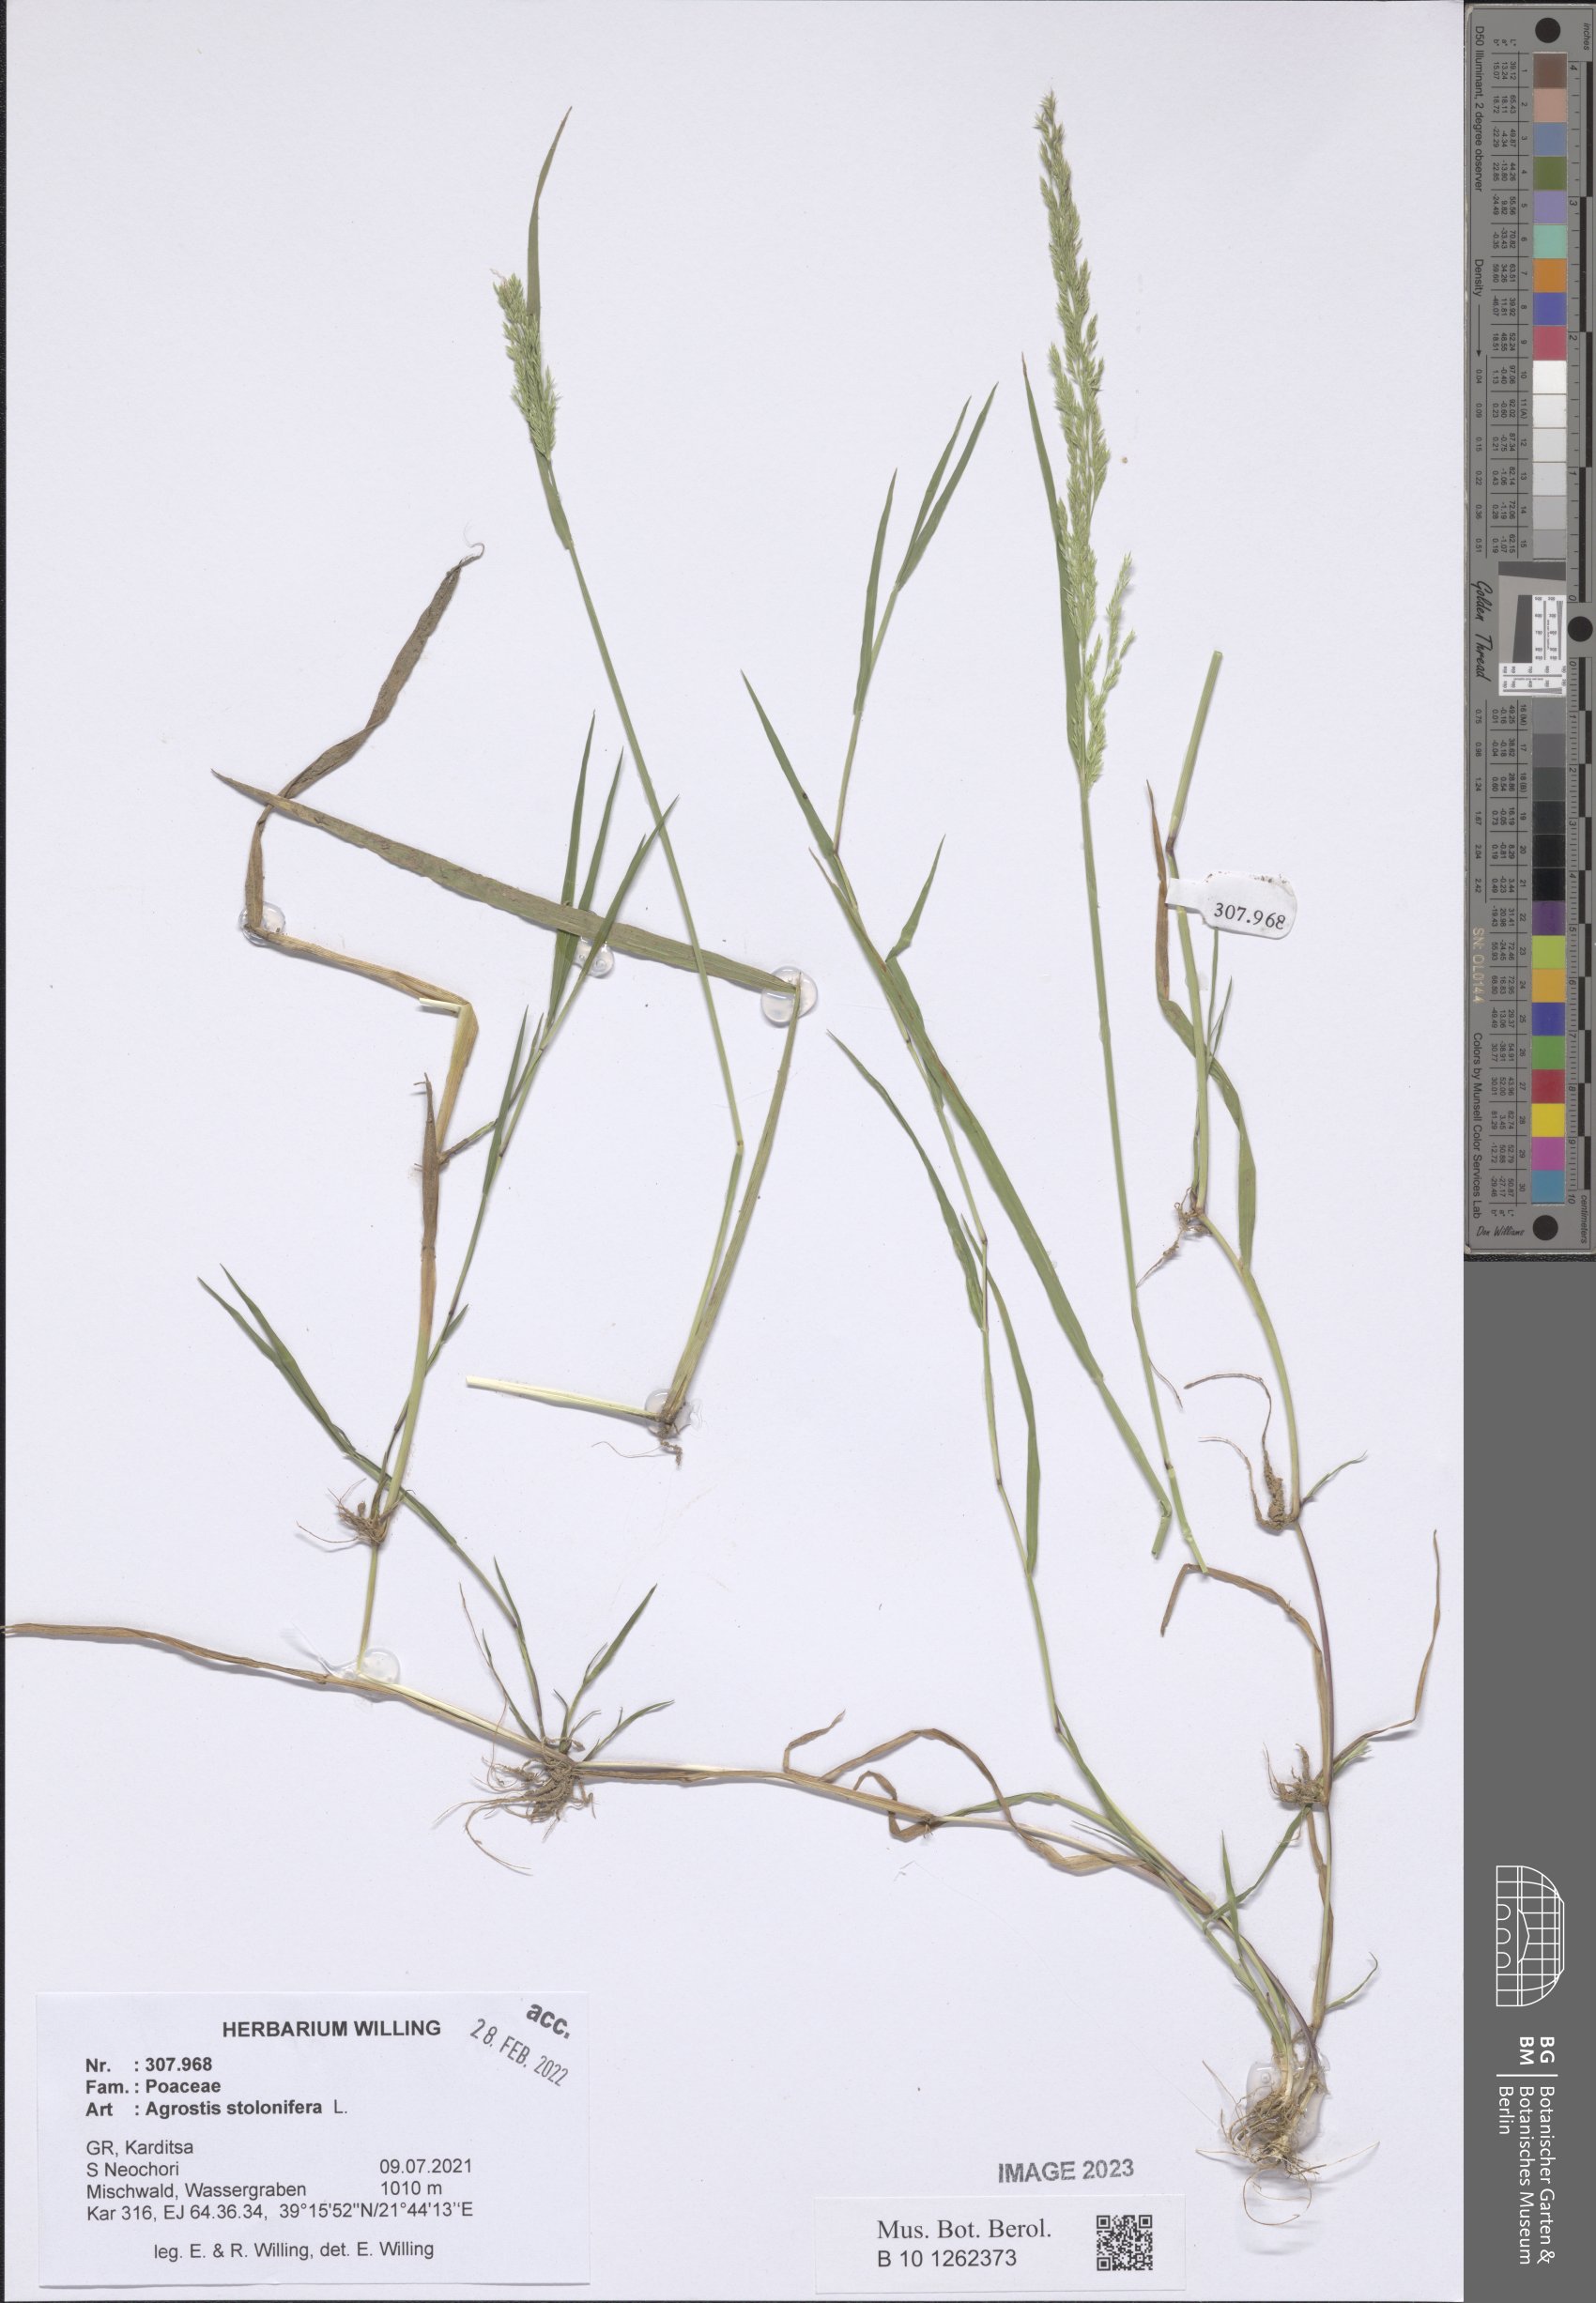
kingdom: Plantae
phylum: Tracheophyta
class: Liliopsida
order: Poales
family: Poaceae
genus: Agrostis
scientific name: Agrostis stolonifera
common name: Creeping bentgrass
